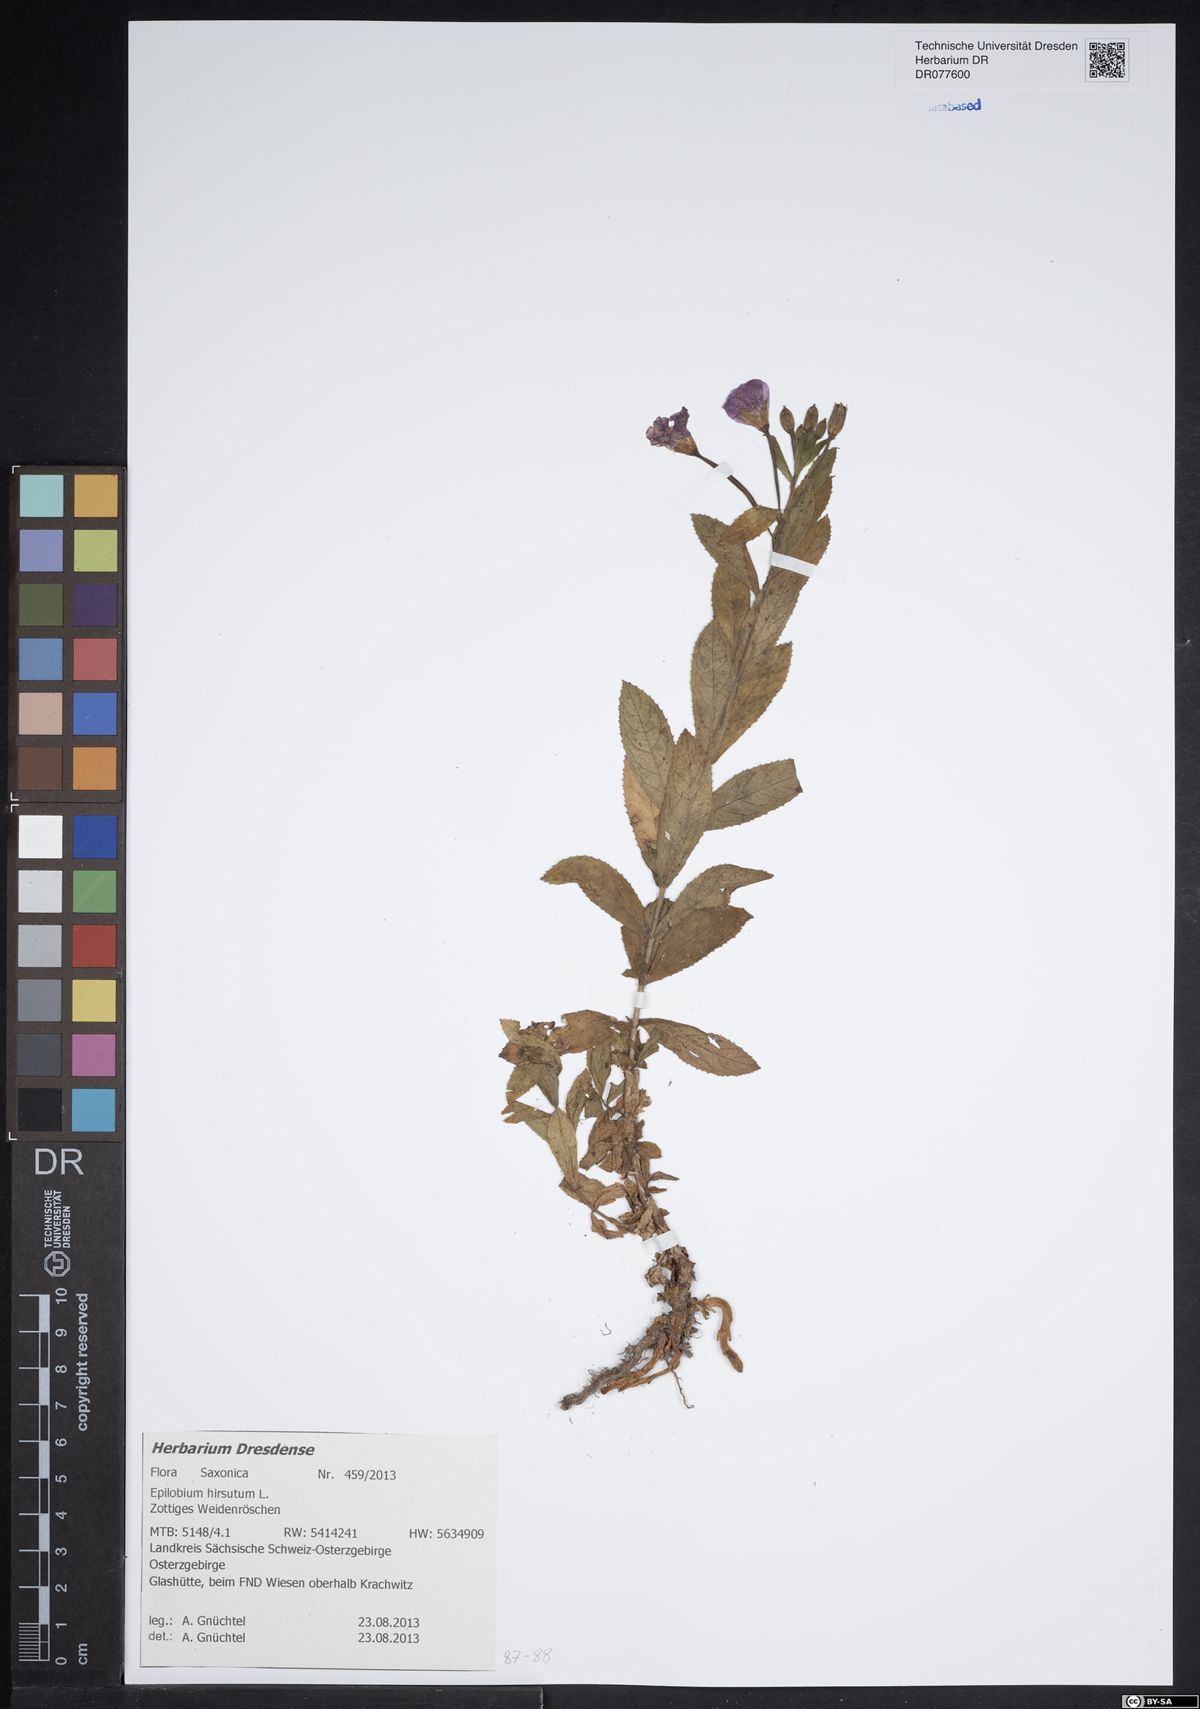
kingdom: Plantae
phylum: Tracheophyta
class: Magnoliopsida
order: Myrtales
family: Onagraceae
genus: Epilobium
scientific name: Epilobium hirsutum
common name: Great willowherb
